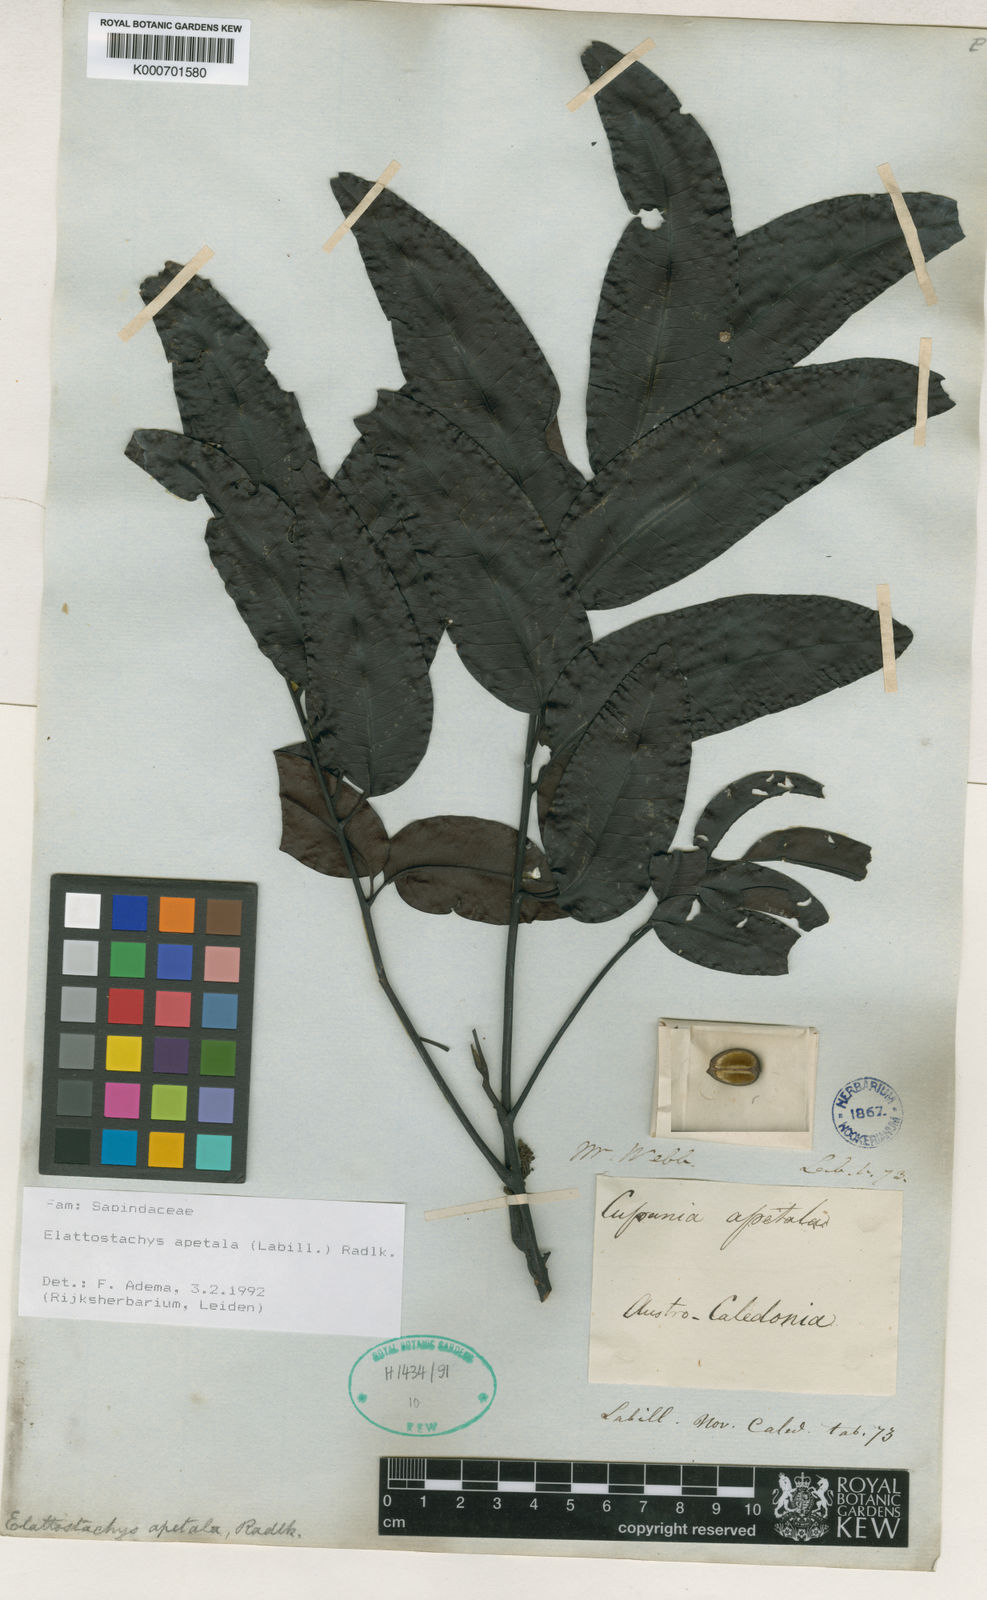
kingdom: Plantae
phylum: Tracheophyta
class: Magnoliopsida
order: Sapindales
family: Sapindaceae
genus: Elattostachys
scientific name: Elattostachys apetala
